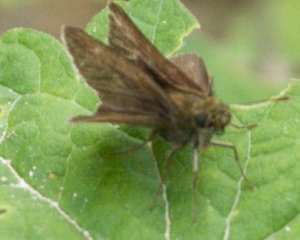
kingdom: Animalia
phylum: Arthropoda
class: Insecta
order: Lepidoptera
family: Hesperiidae
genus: Euphyes
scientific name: Euphyes vestris
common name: Dun Skipper
